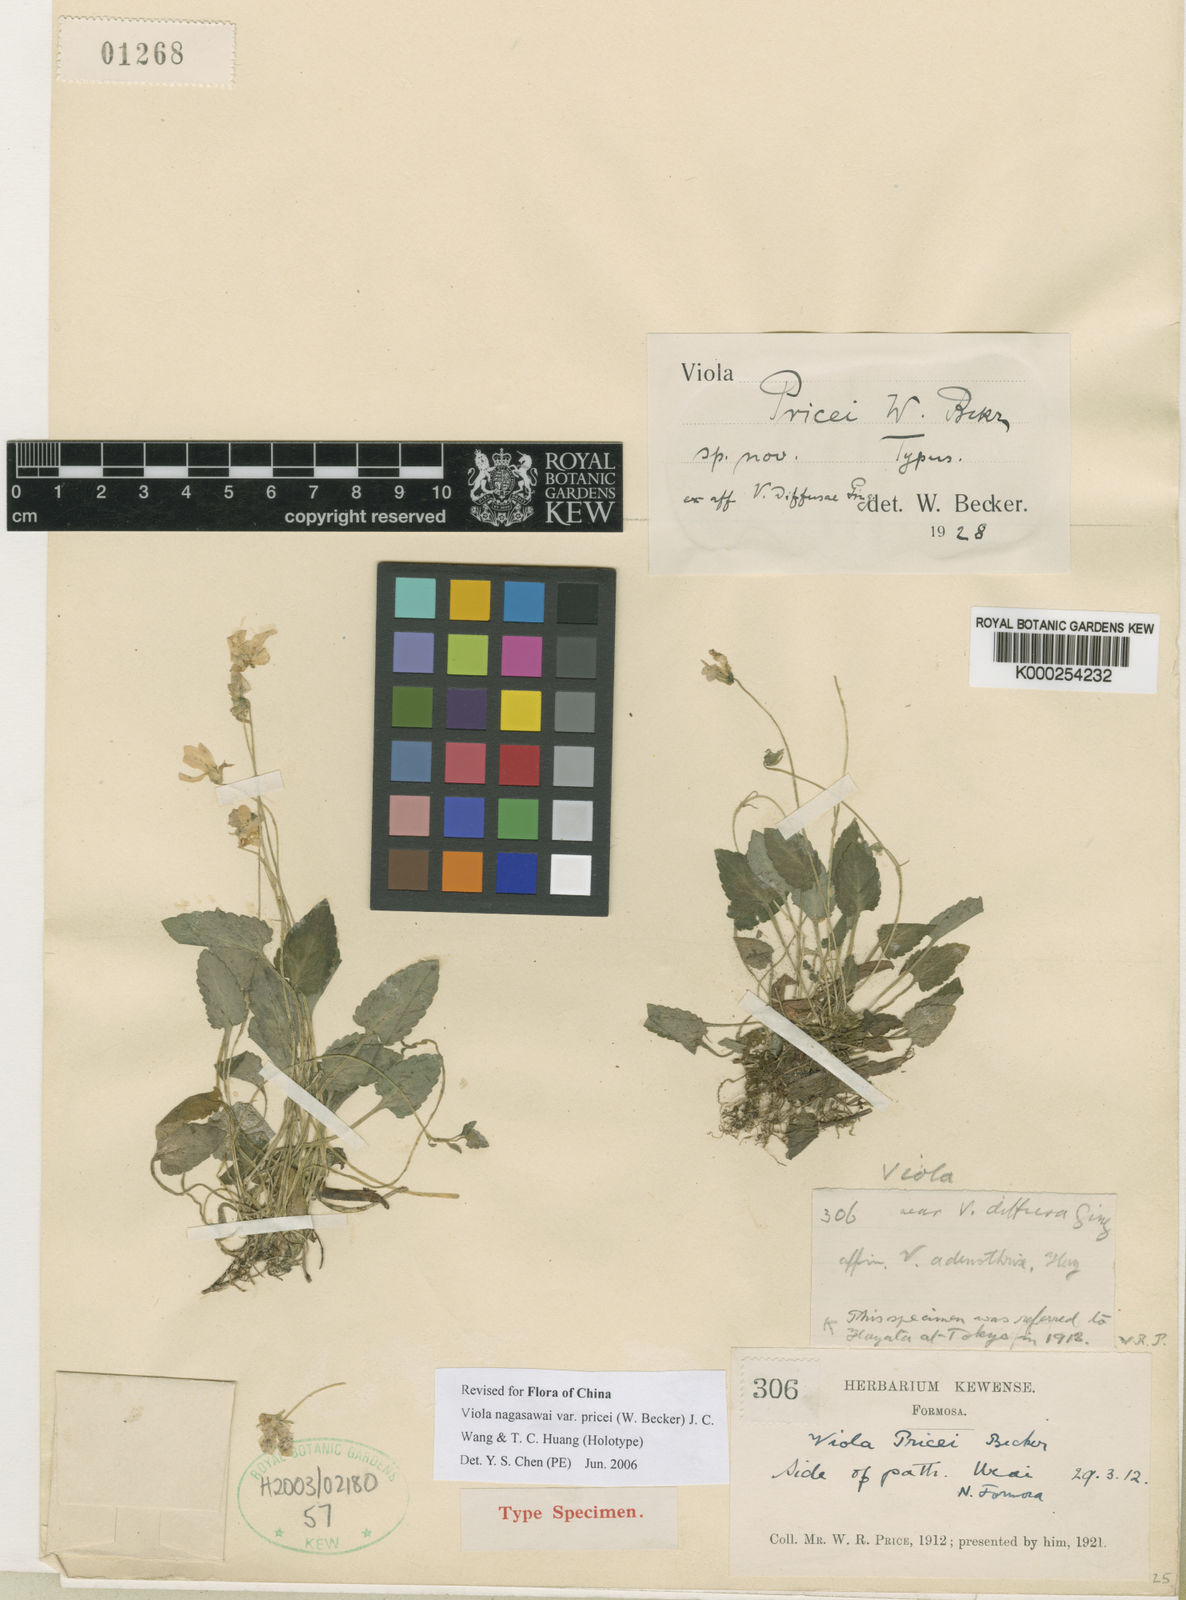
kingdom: Plantae
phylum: Tracheophyta
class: Magnoliopsida
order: Malpighiales
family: Violaceae
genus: Viola
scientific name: Viola pricei
